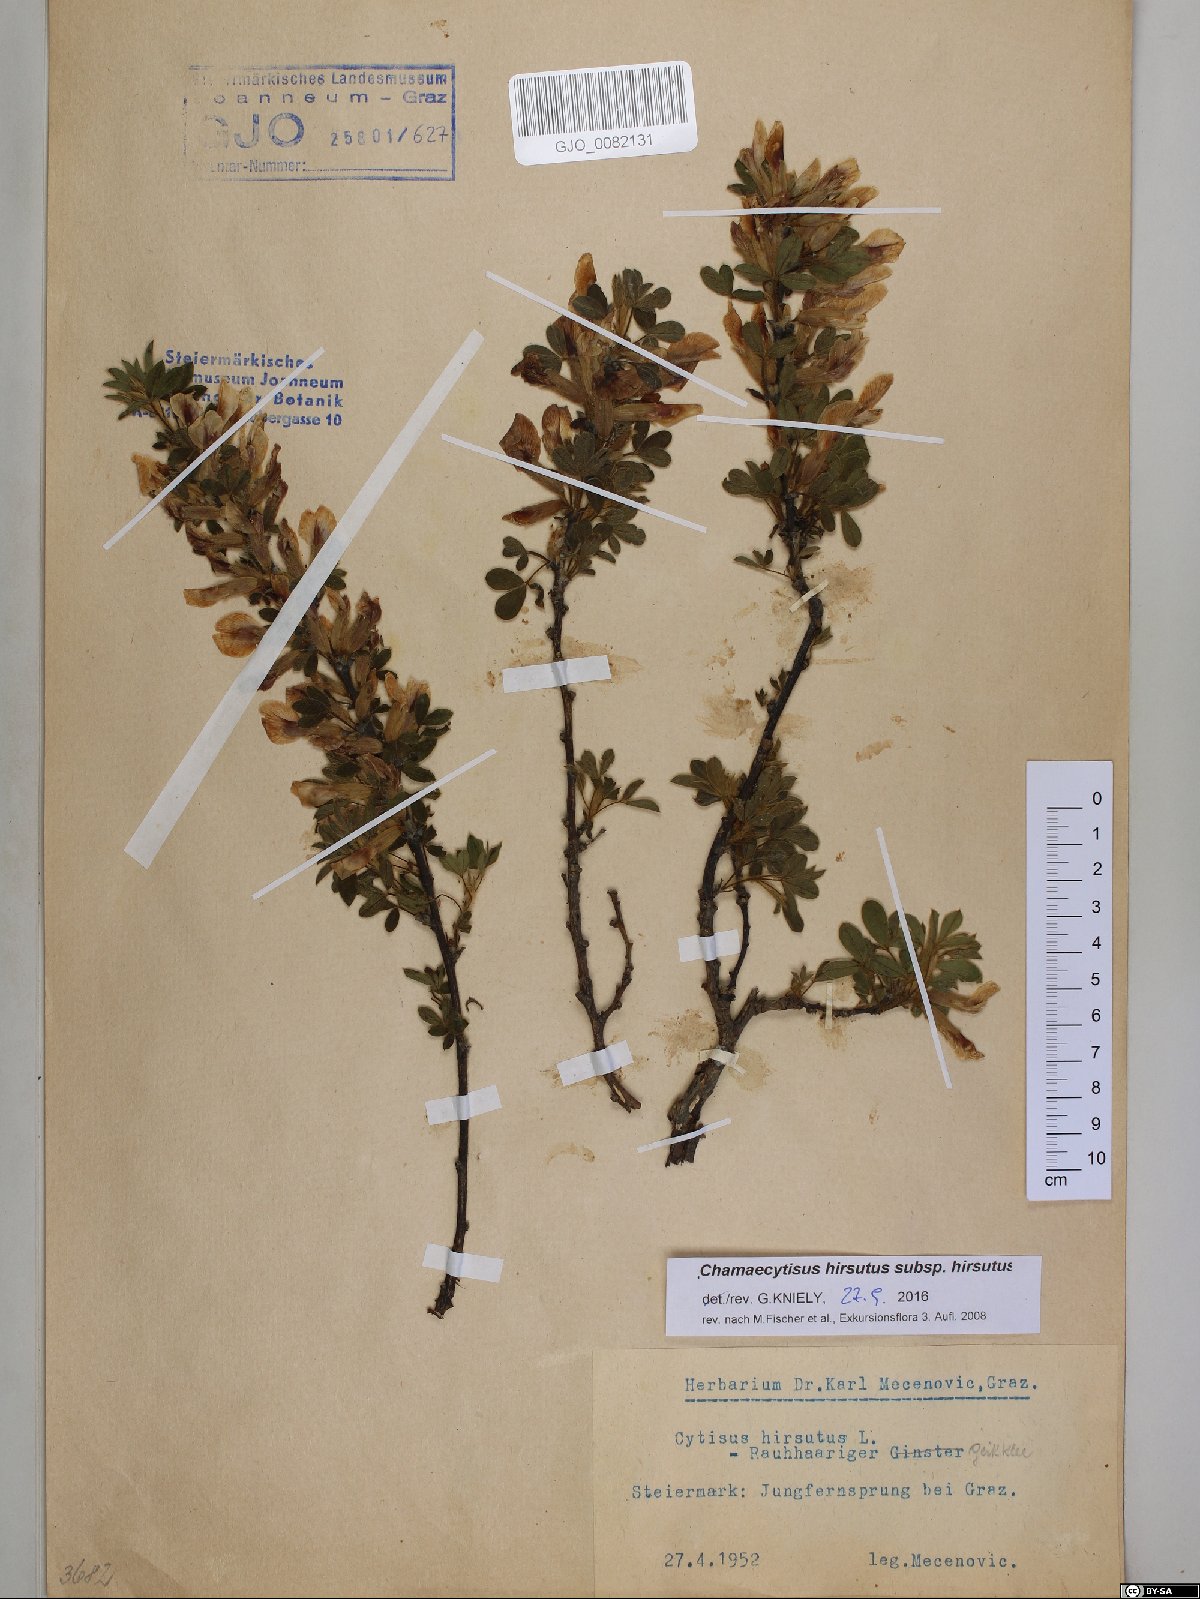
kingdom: Plantae
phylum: Tracheophyta
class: Magnoliopsida
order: Fabales
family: Fabaceae
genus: Chamaecytisus
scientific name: Chamaecytisus hirsutus
